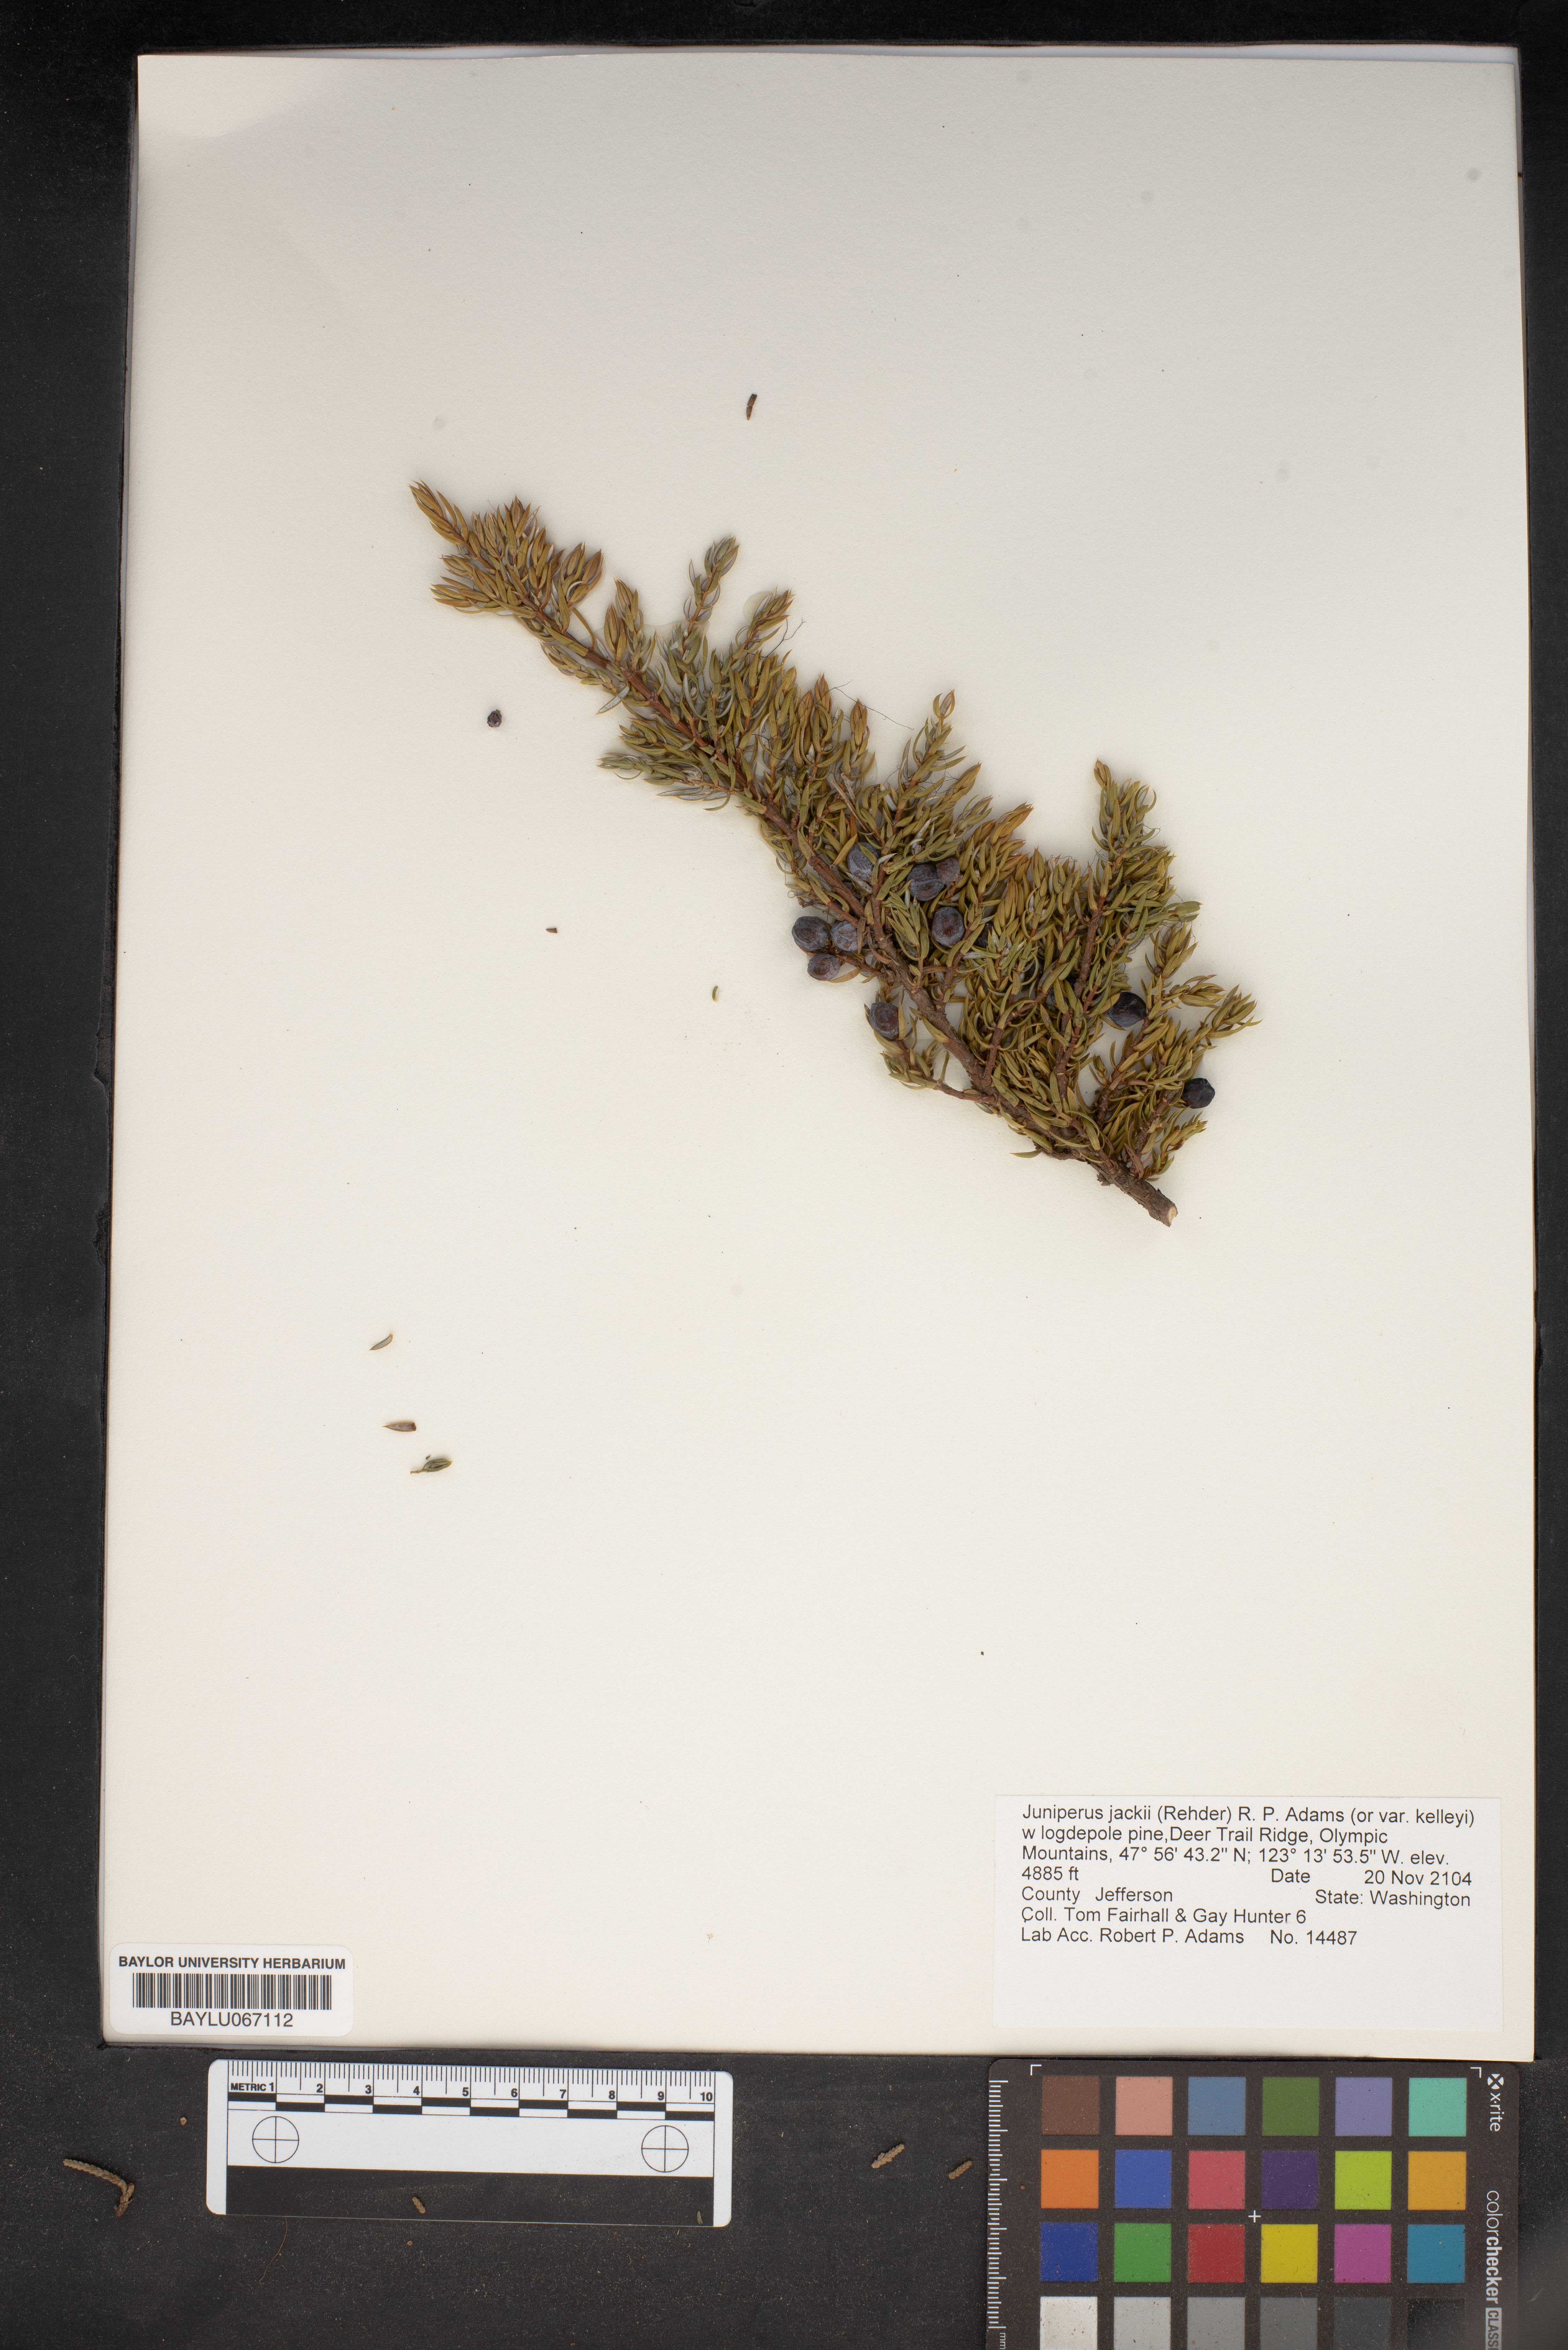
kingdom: Plantae
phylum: Tracheophyta
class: Pinopsida
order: Pinales
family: Cupressaceae
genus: Juniperus
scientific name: Juniperus communis
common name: Common juniper
